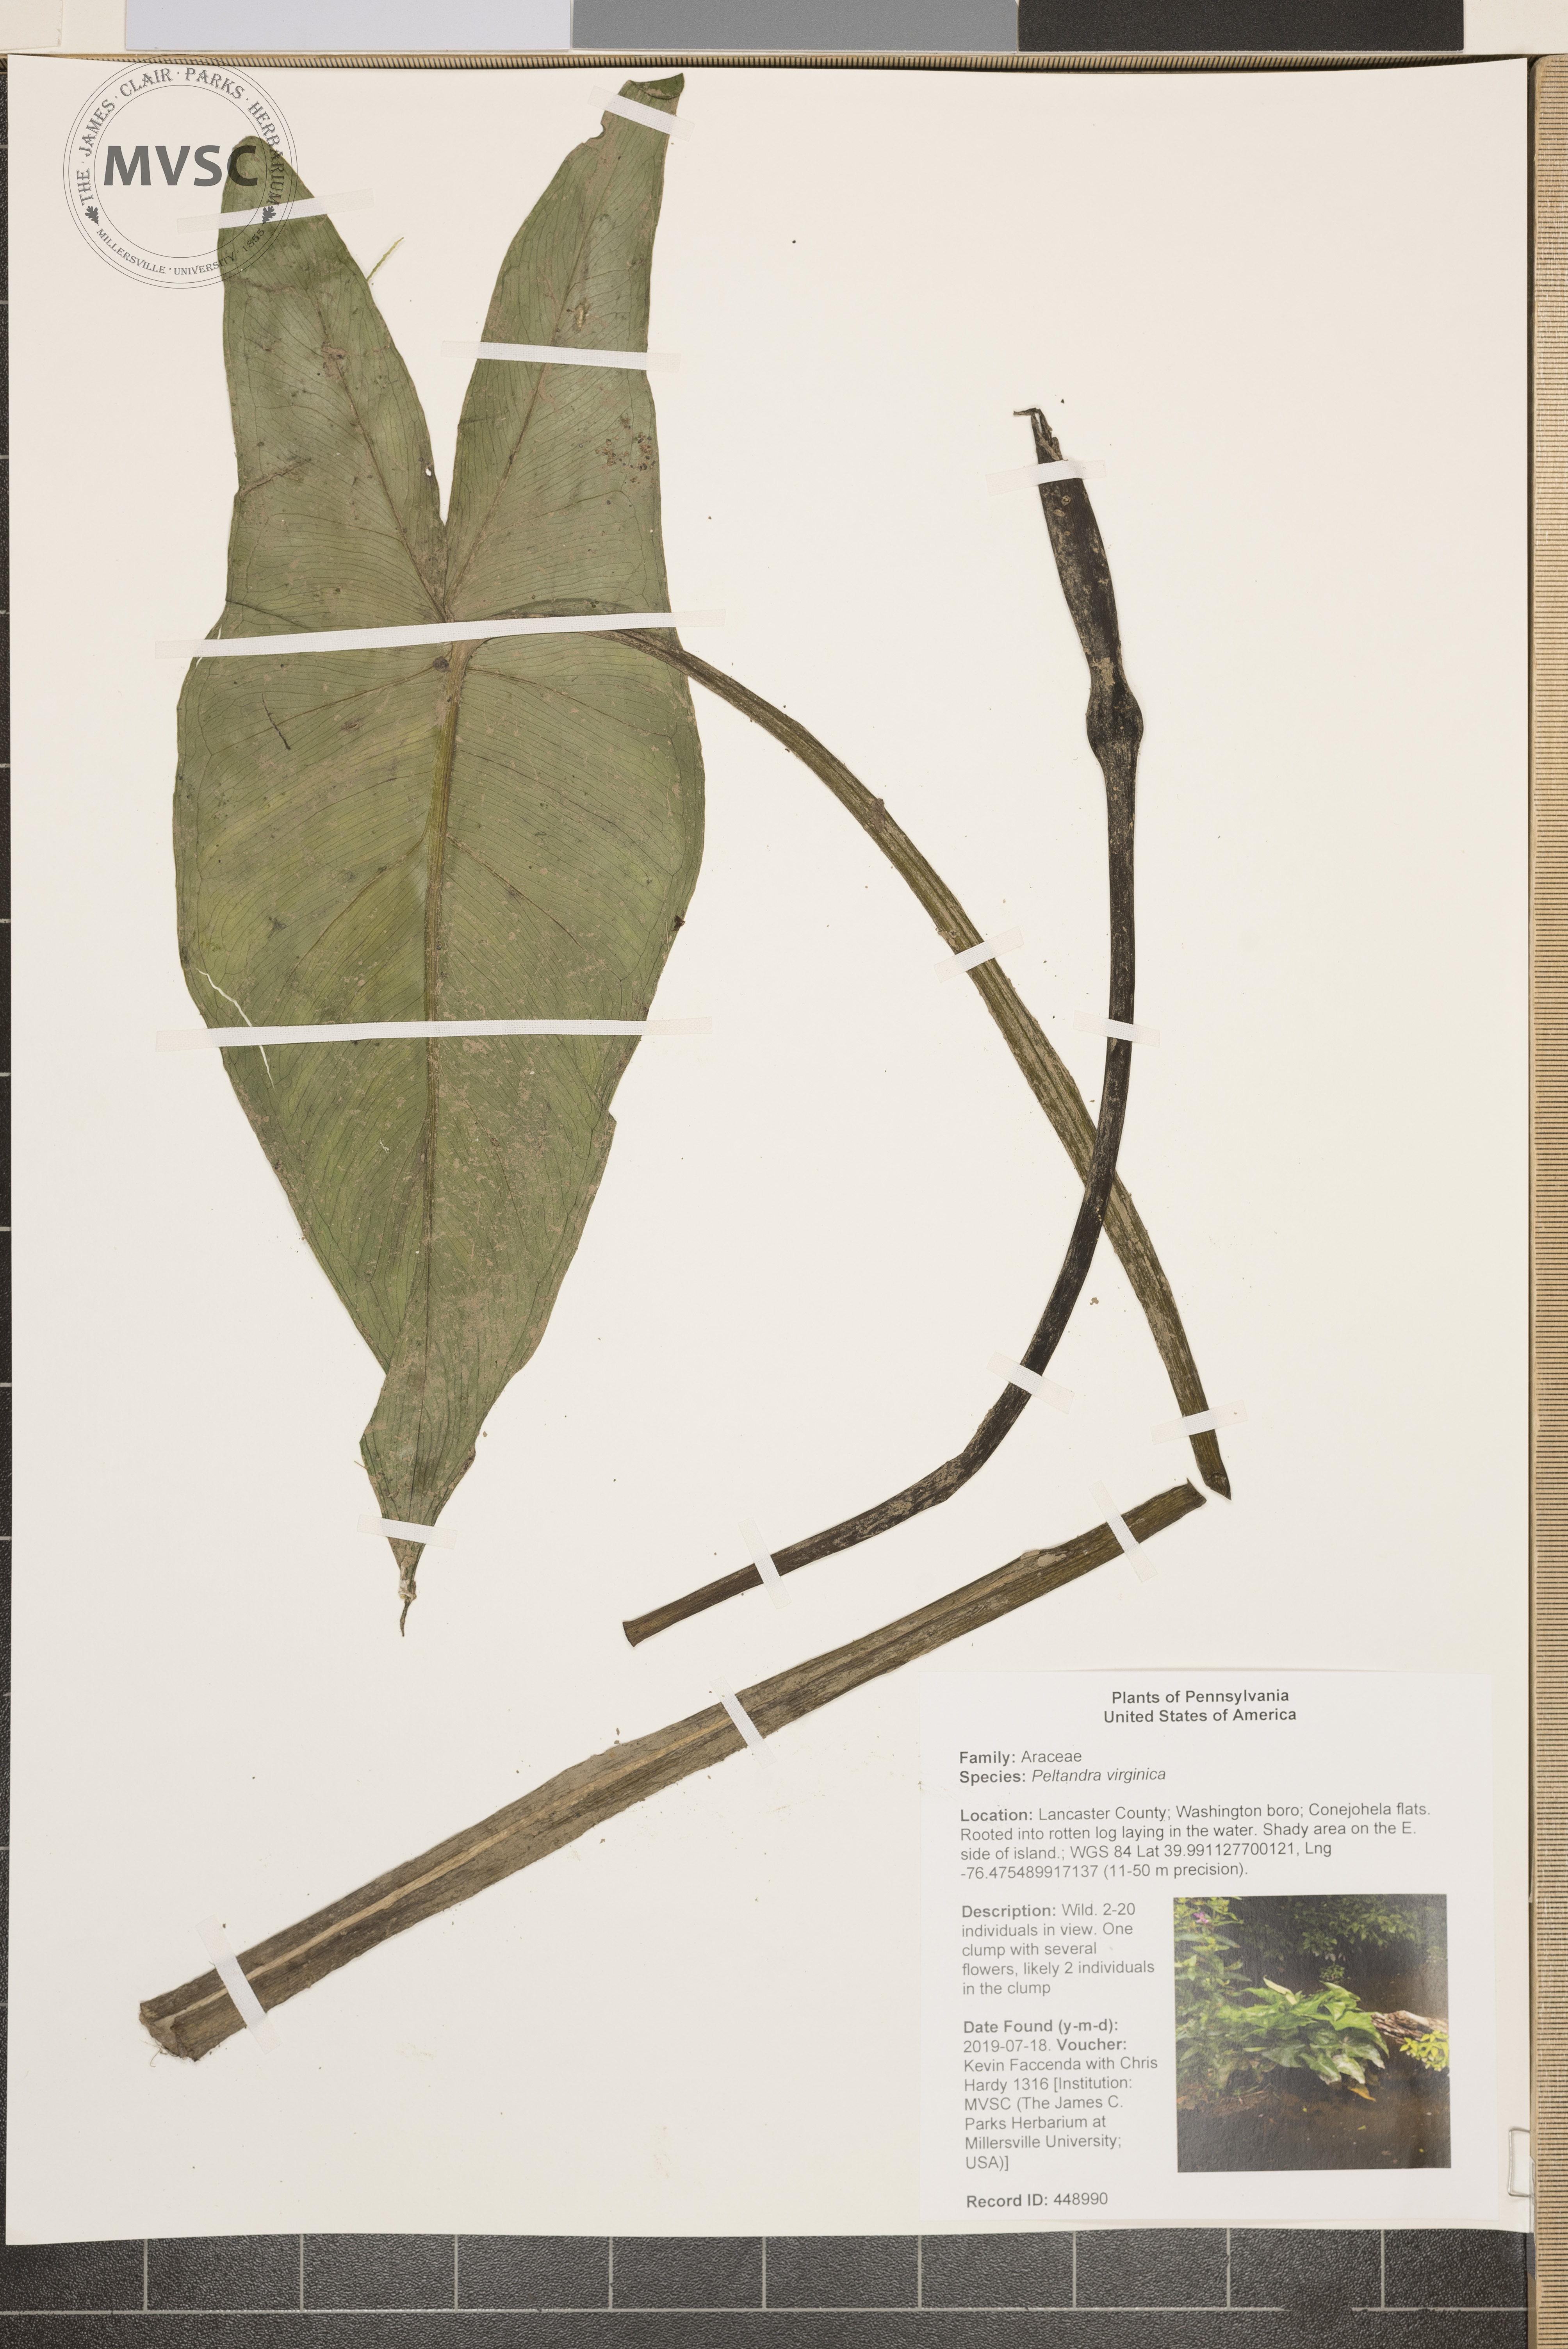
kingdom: Plantae
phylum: Tracheophyta
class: Liliopsida
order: Alismatales
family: Araceae
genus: Peltandra
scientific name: Peltandra virginica
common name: Arrow arum
